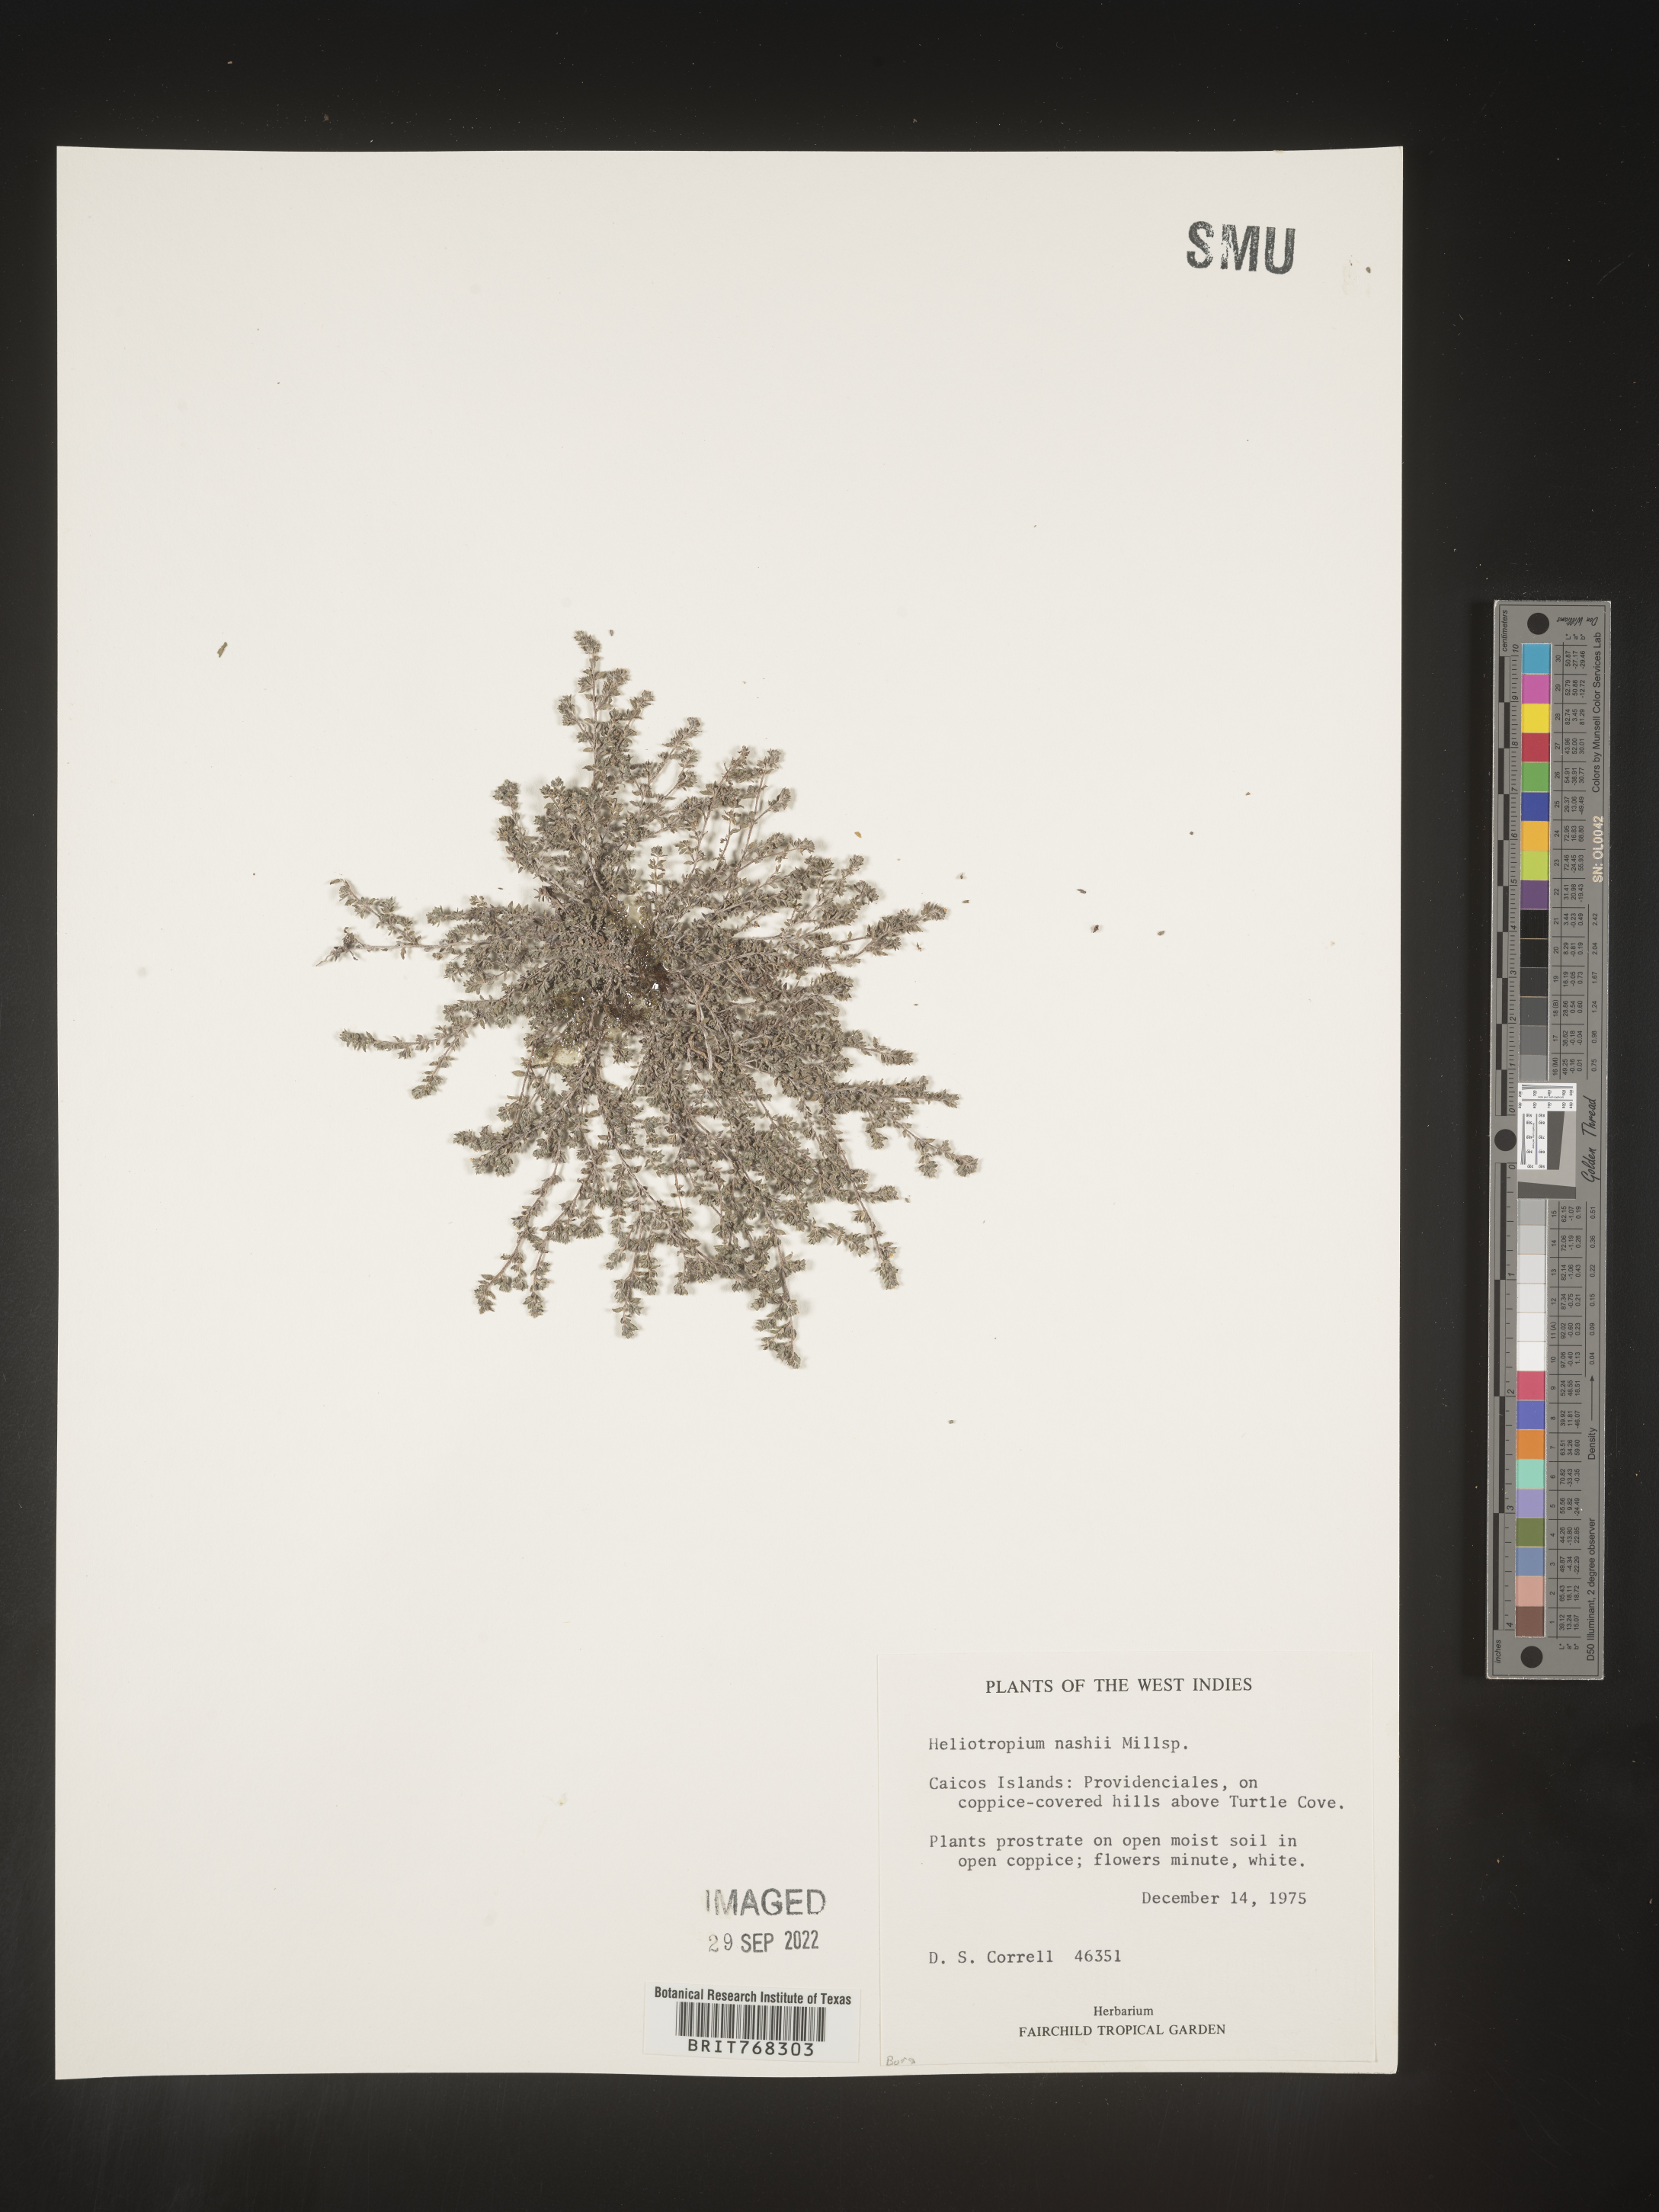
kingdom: Plantae
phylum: Tracheophyta
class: Magnoliopsida
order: Boraginales
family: Heliotropiaceae
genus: Heliotropium
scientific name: Heliotropium
